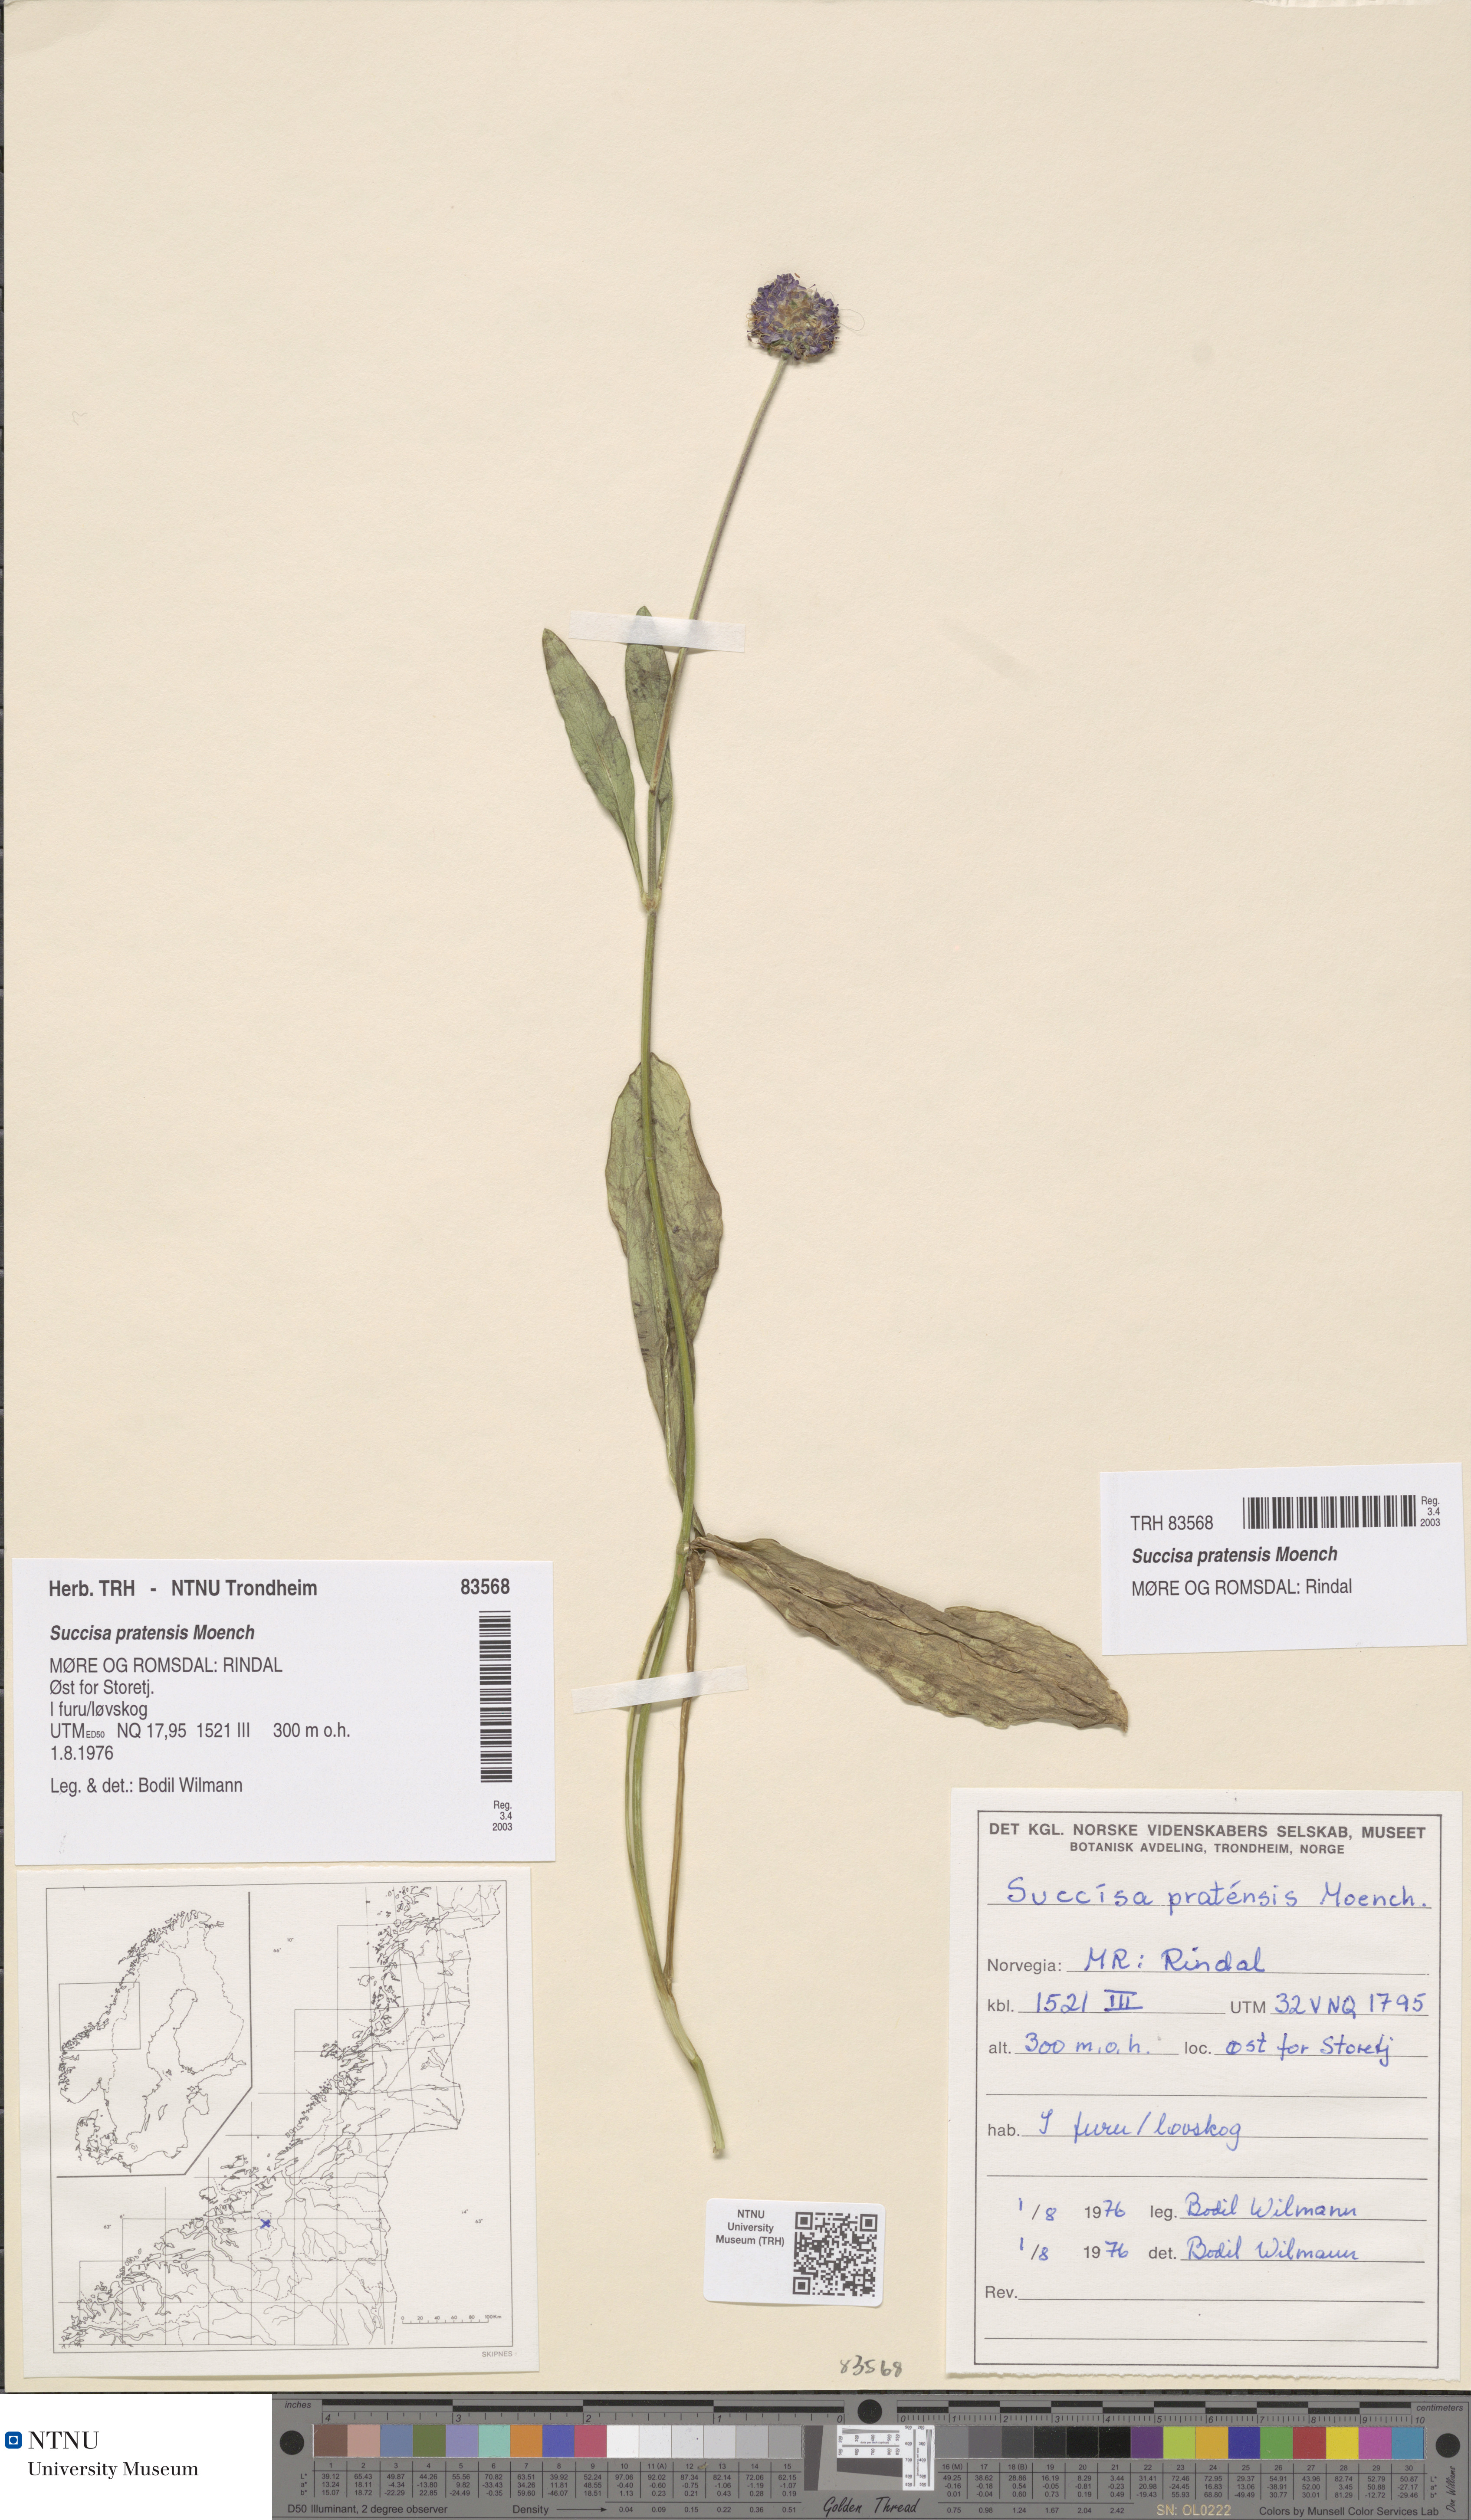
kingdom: Plantae
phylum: Tracheophyta
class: Magnoliopsida
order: Dipsacales
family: Caprifoliaceae
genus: Succisa
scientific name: Succisa pratensis
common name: Devil's-bit
